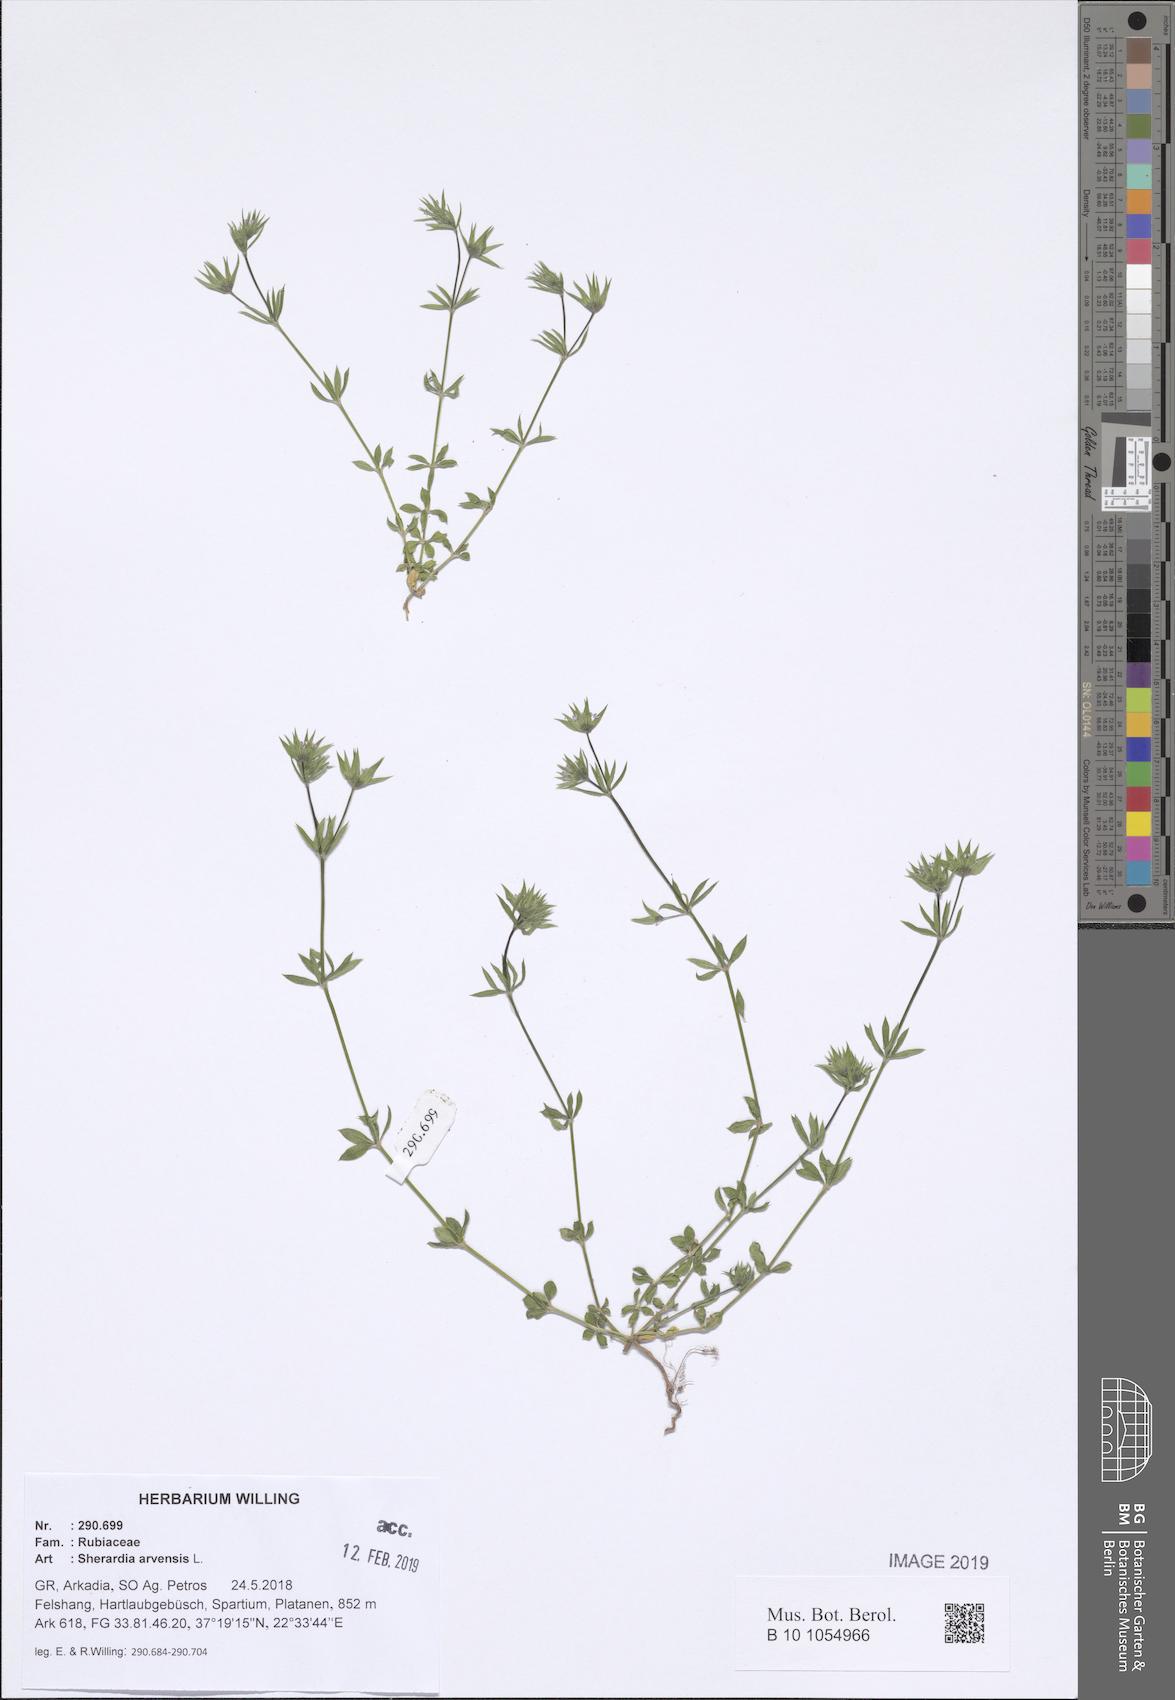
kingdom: Plantae
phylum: Tracheophyta
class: Magnoliopsida
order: Gentianales
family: Rubiaceae
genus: Sherardia
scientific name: Sherardia arvensis
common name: Field madder
